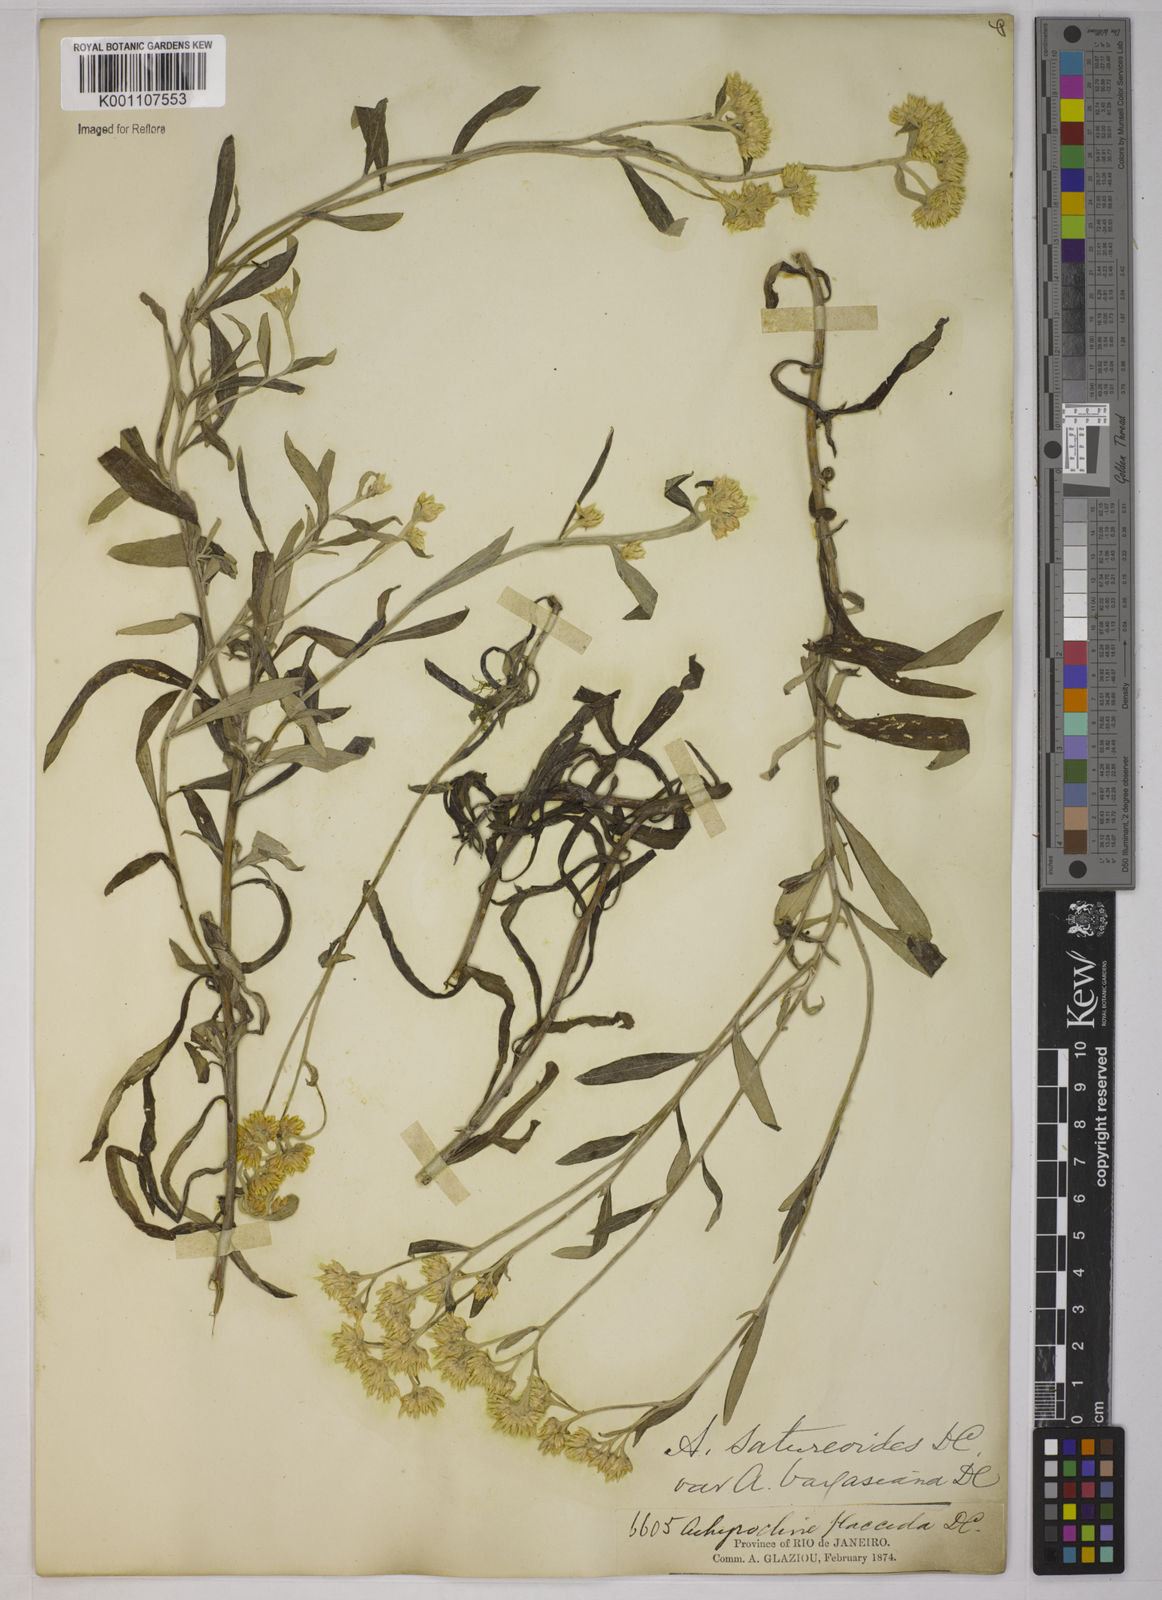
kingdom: Plantae
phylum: Tracheophyta
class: Magnoliopsida
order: Asterales
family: Asteraceae
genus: Achyrocline
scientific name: Achyrocline vargasiana
